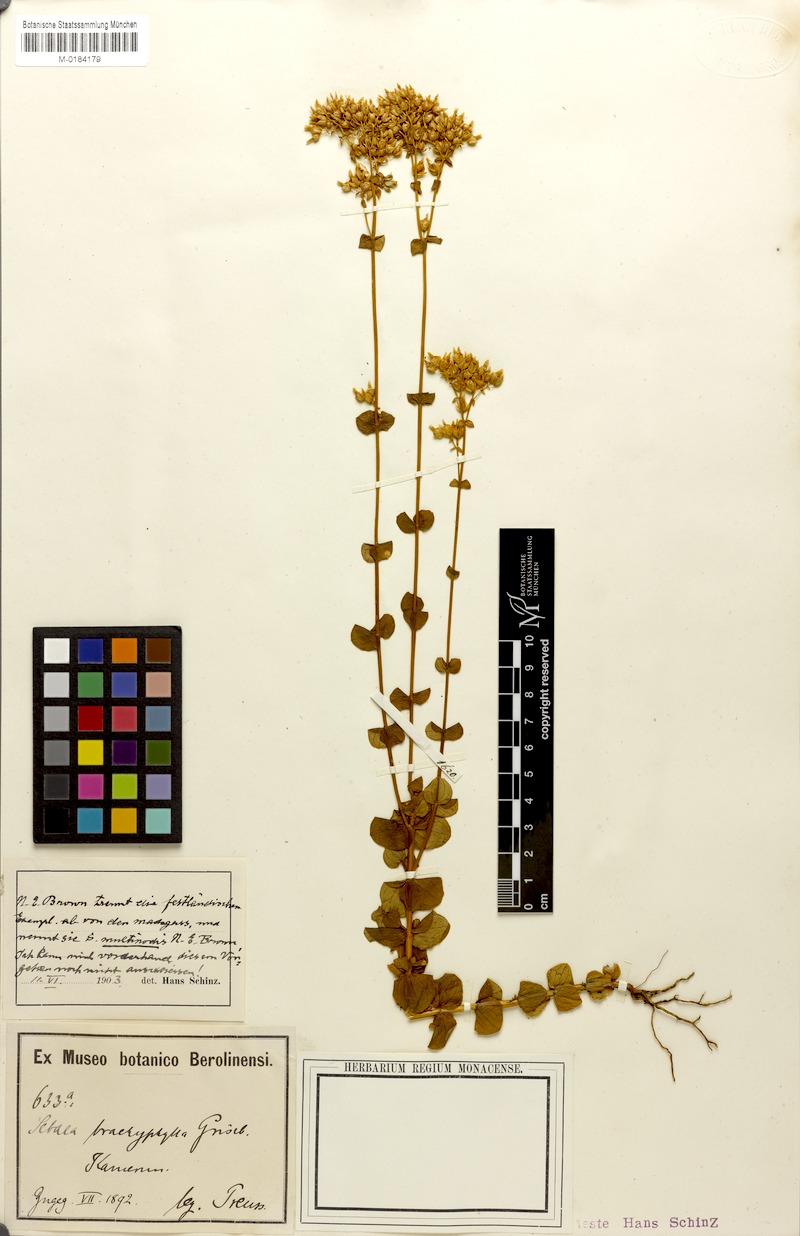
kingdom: Plantae
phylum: Tracheophyta
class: Magnoliopsida
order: Gentianales
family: Gentianaceae
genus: Sebaea
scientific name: Sebaea brachyphylla
